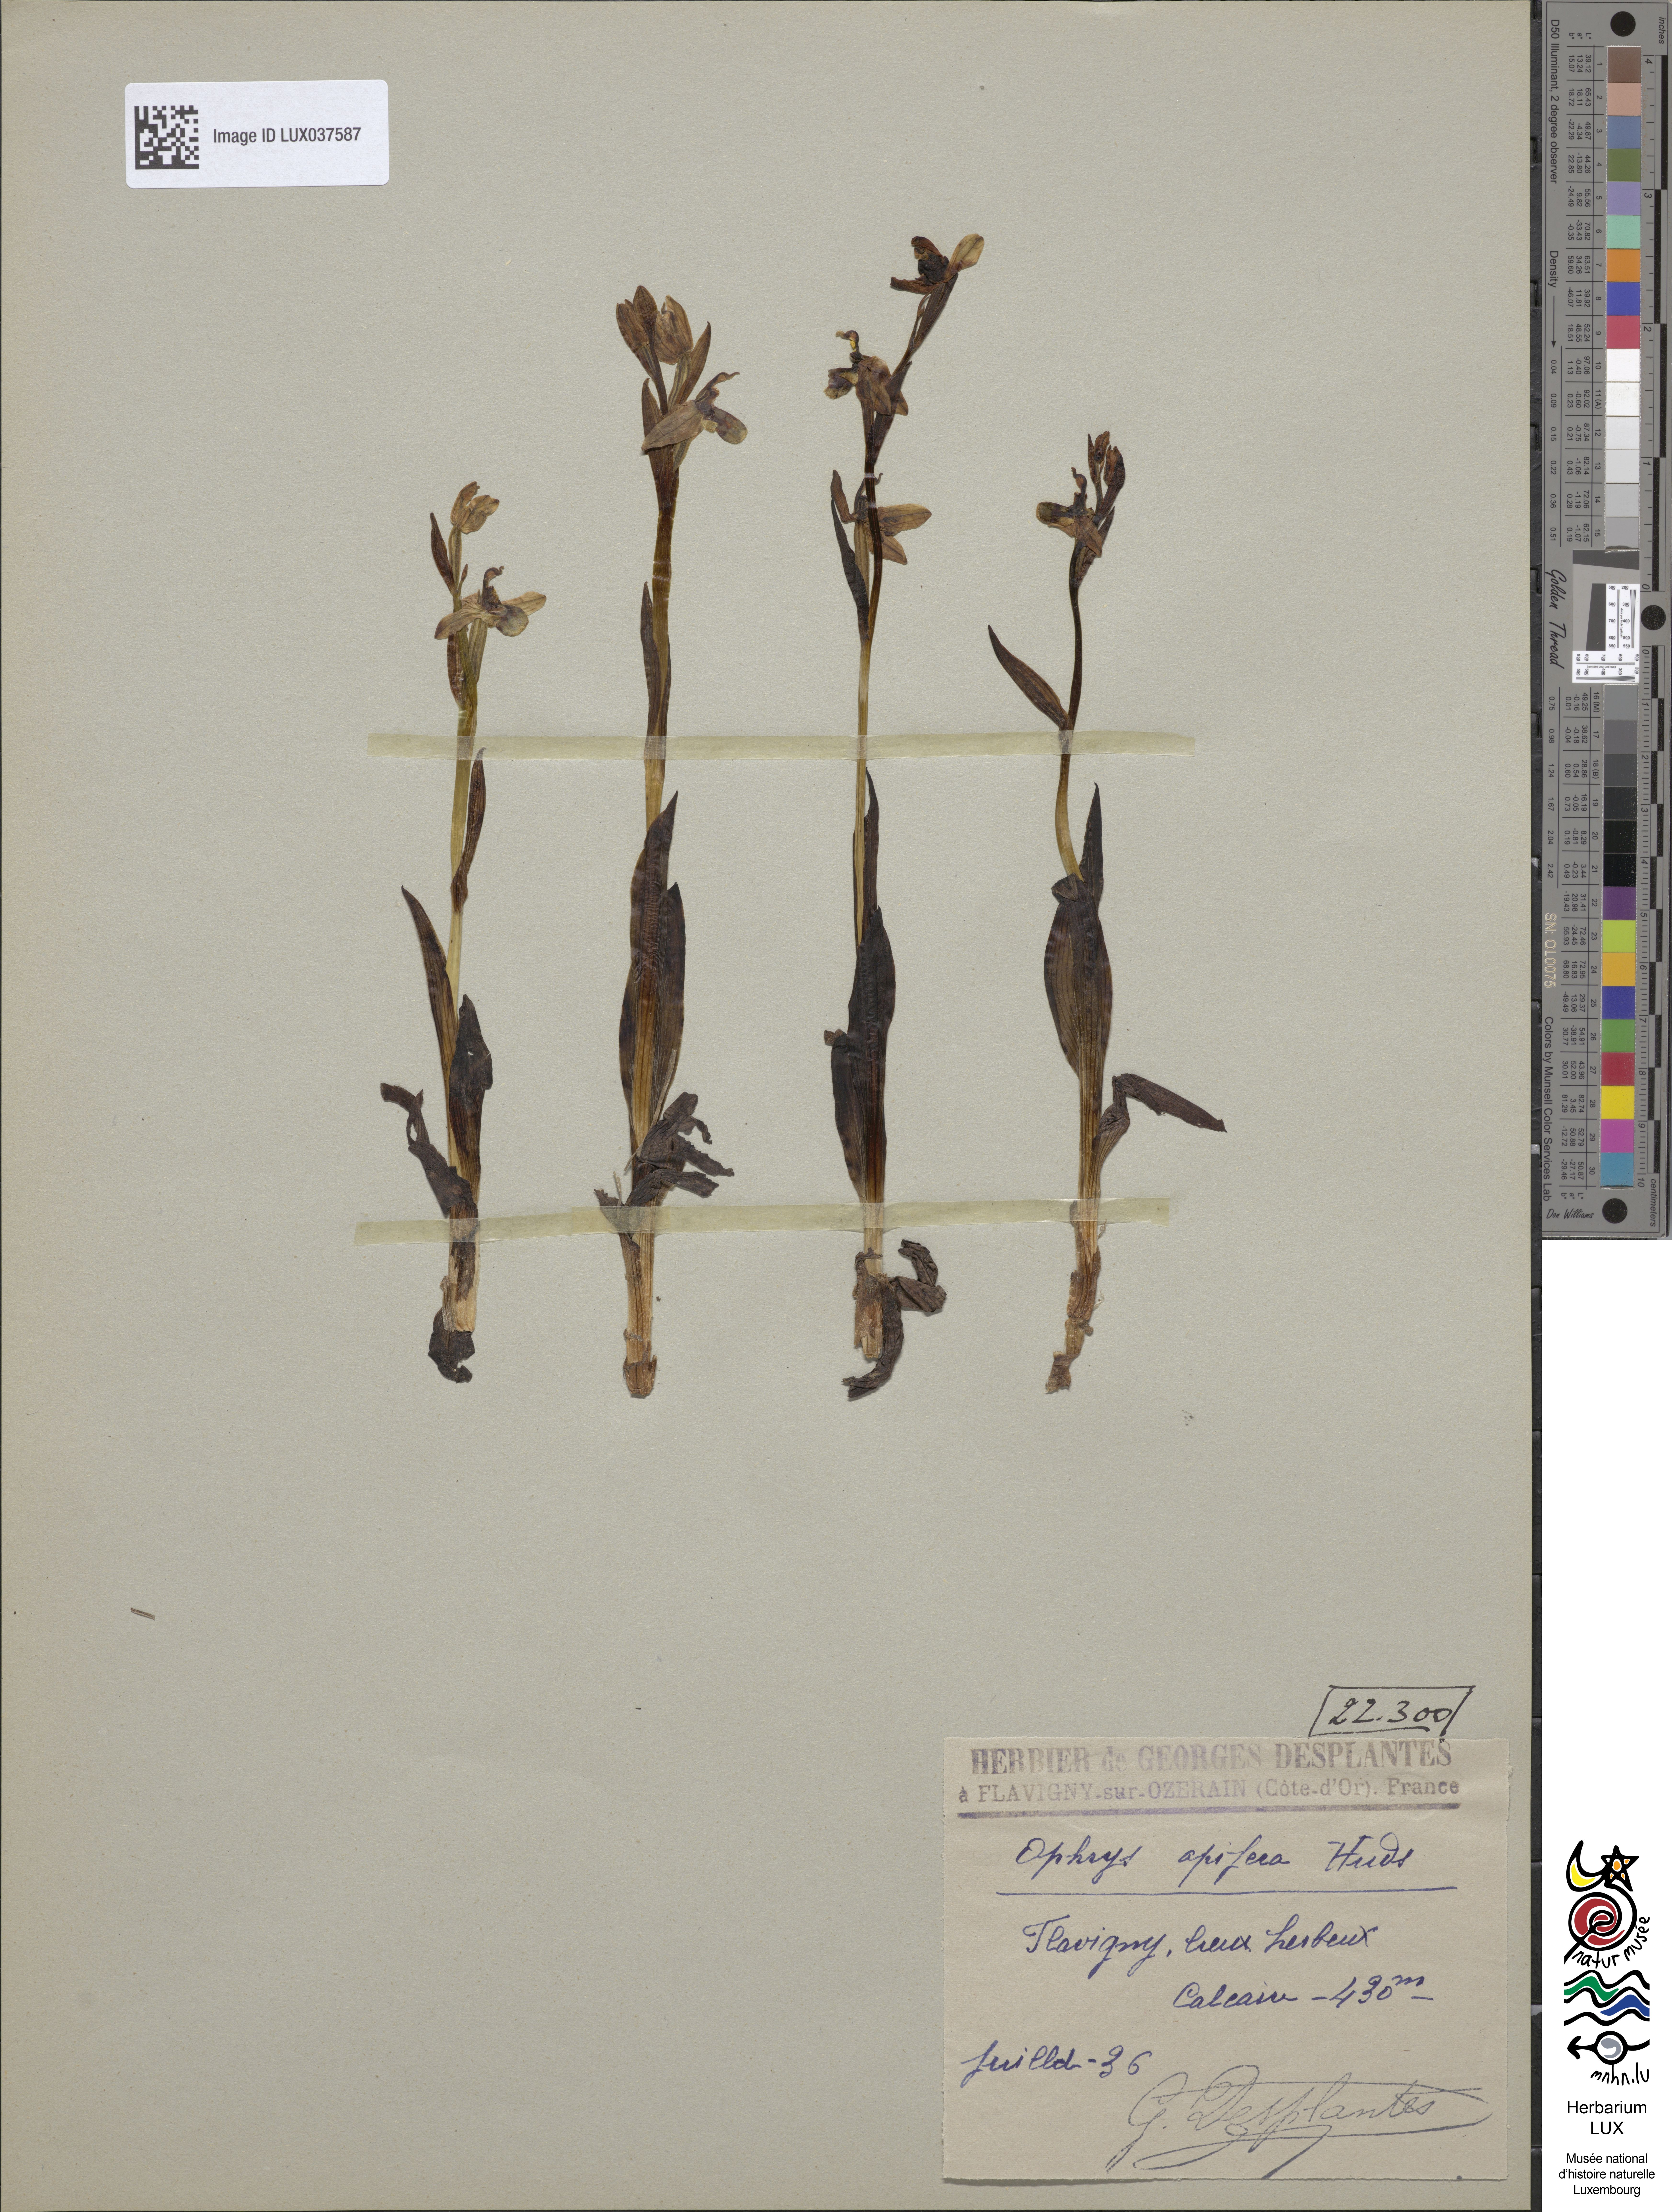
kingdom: Plantae
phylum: Tracheophyta
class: Liliopsida
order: Asparagales
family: Orchidaceae
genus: Ophrys
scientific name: Ophrys apifera
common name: Bee orchid
